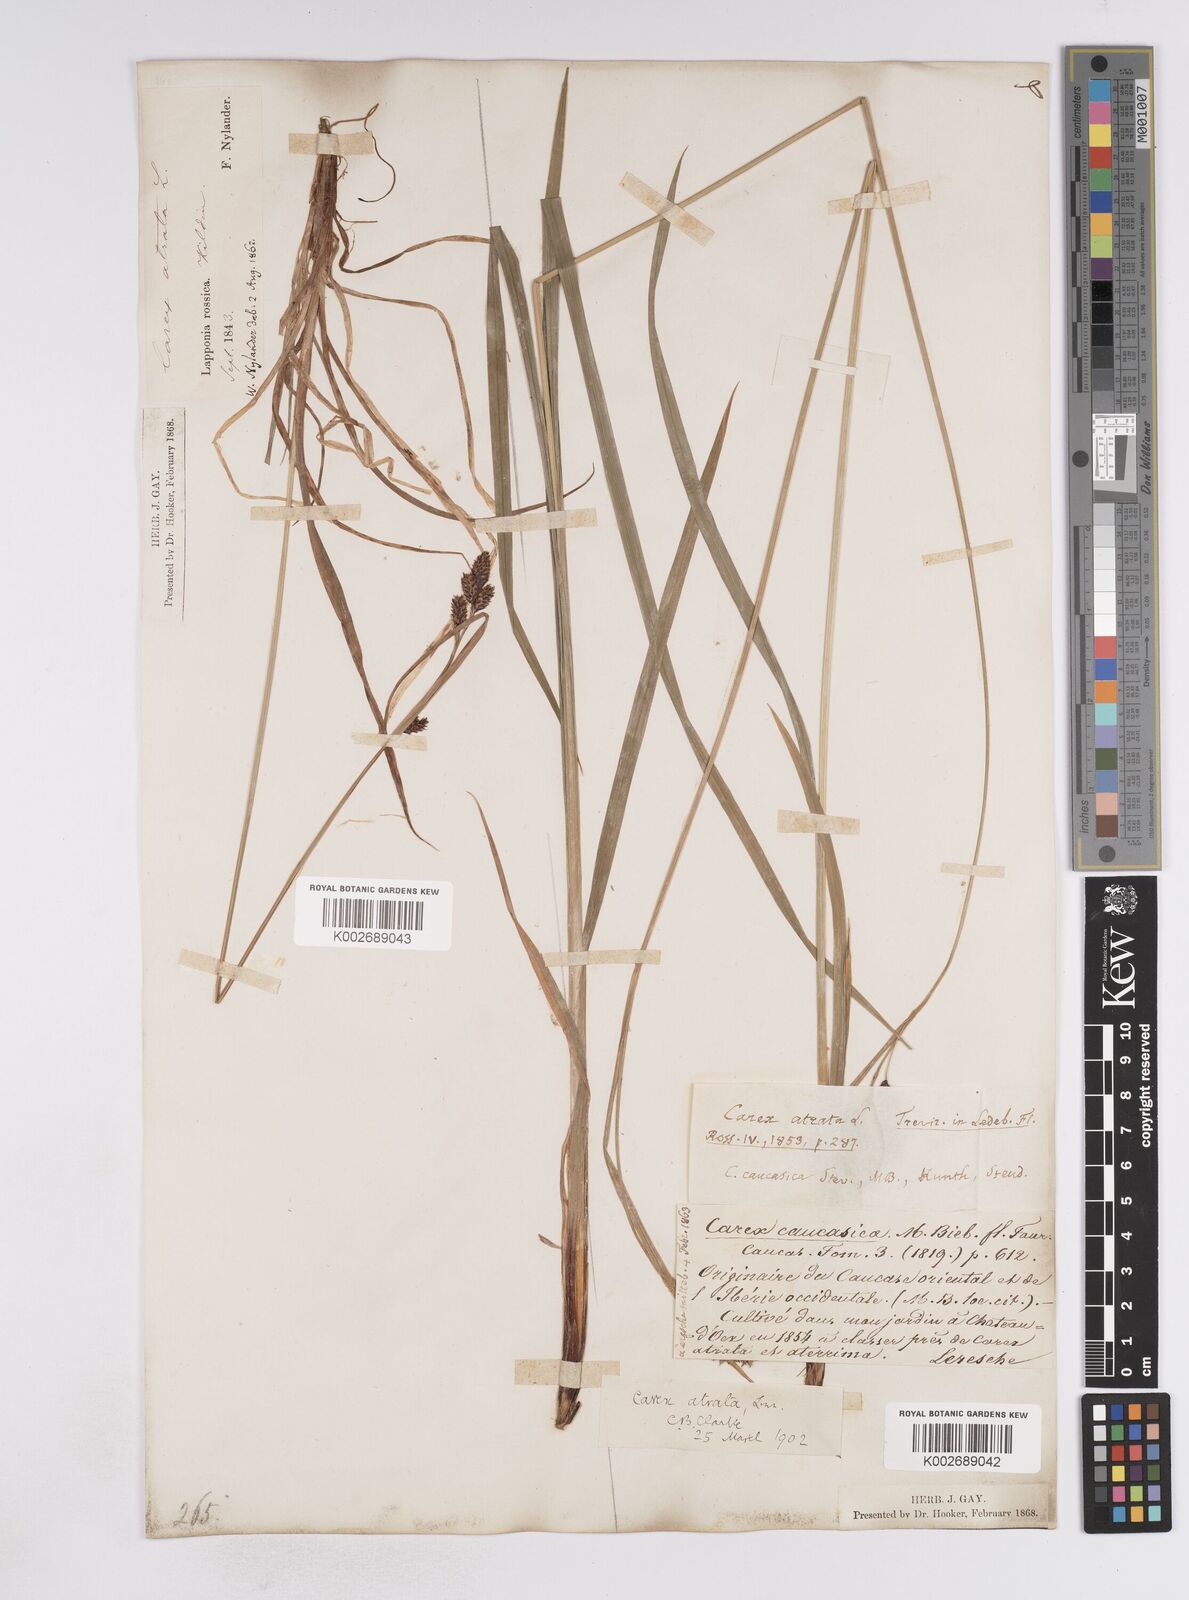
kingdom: Plantae
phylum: Tracheophyta
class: Liliopsida
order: Poales
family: Cyperaceae
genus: Carex
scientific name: Carex atrata
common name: Black alpine sedge
